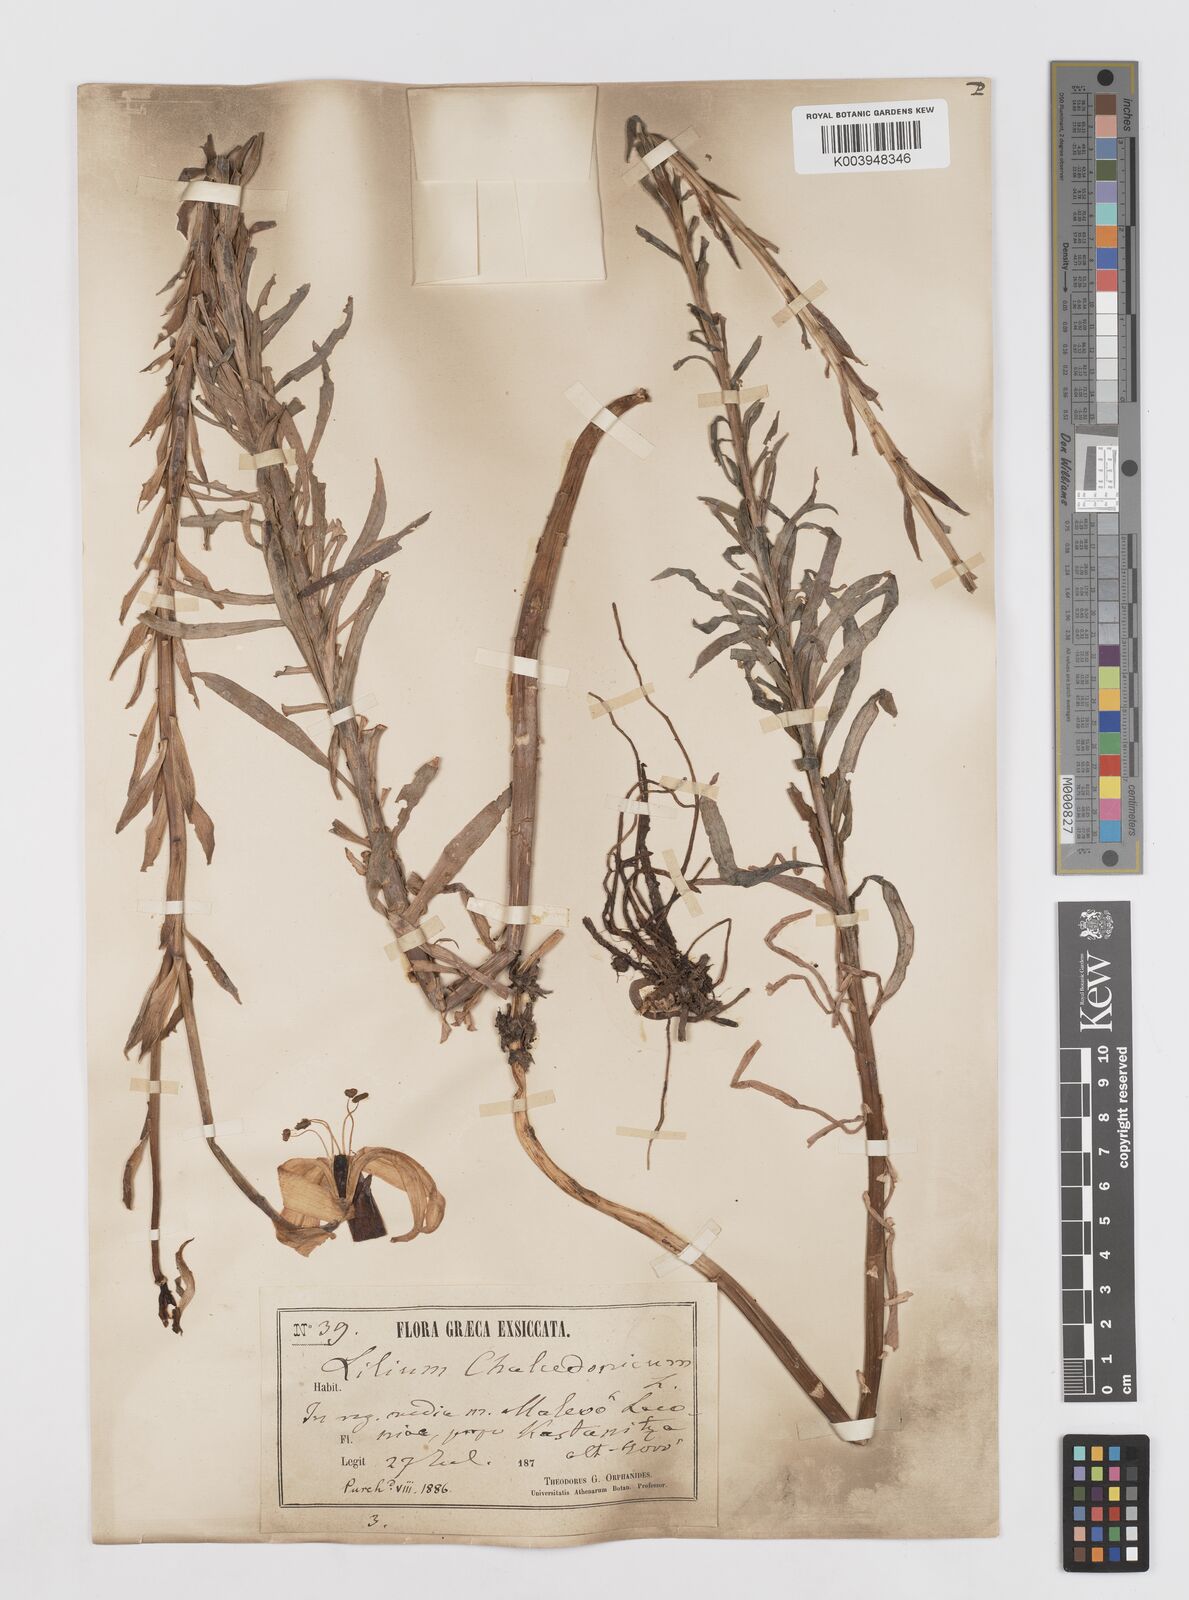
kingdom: Plantae
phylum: Tracheophyta
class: Liliopsida
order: Liliales
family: Liliaceae
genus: Lilium
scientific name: Lilium chalcedonicum
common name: Red martagon of constantinople
